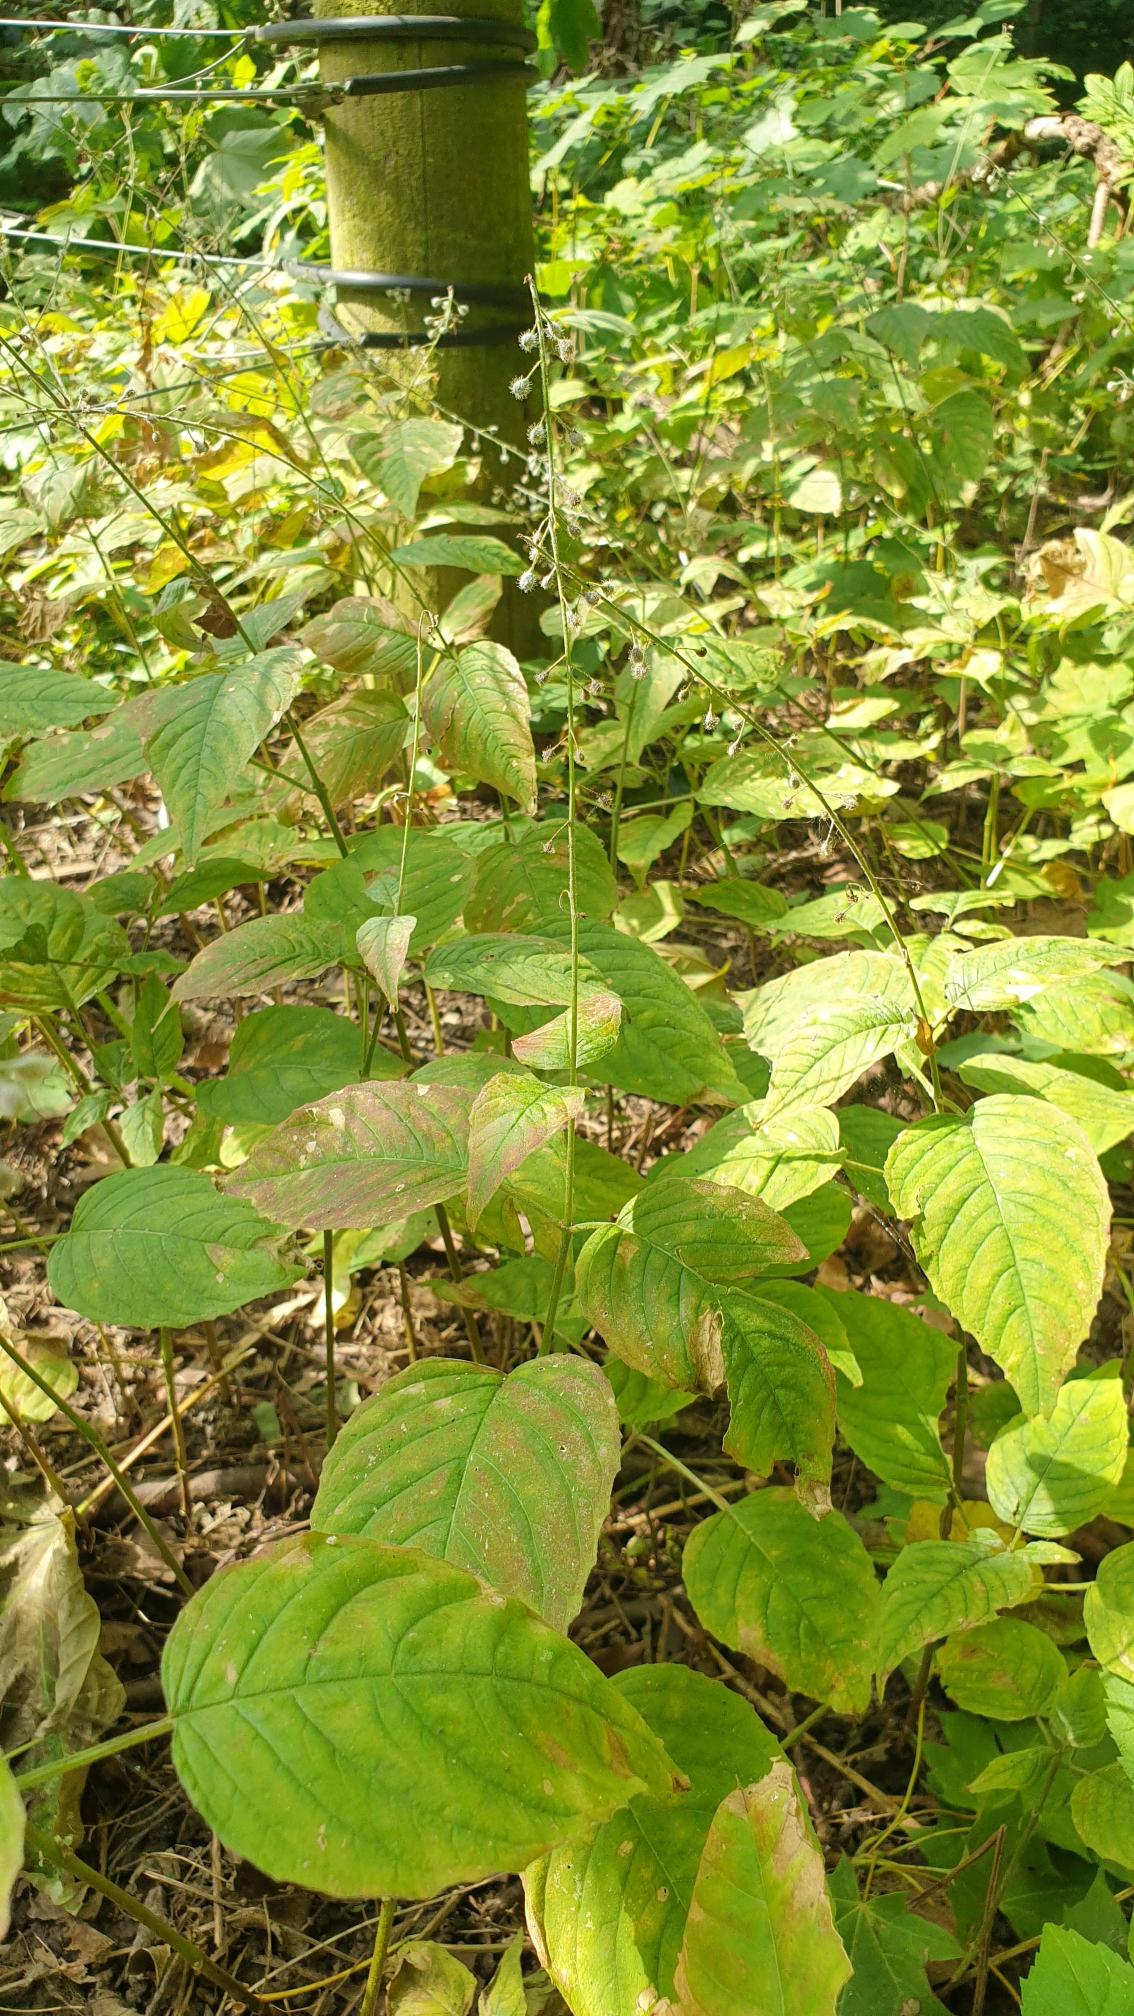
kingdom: Plantae
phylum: Tracheophyta
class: Magnoliopsida
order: Myrtales
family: Onagraceae
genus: Circaea
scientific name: Circaea lutetiana
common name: Dunet steffensurt
